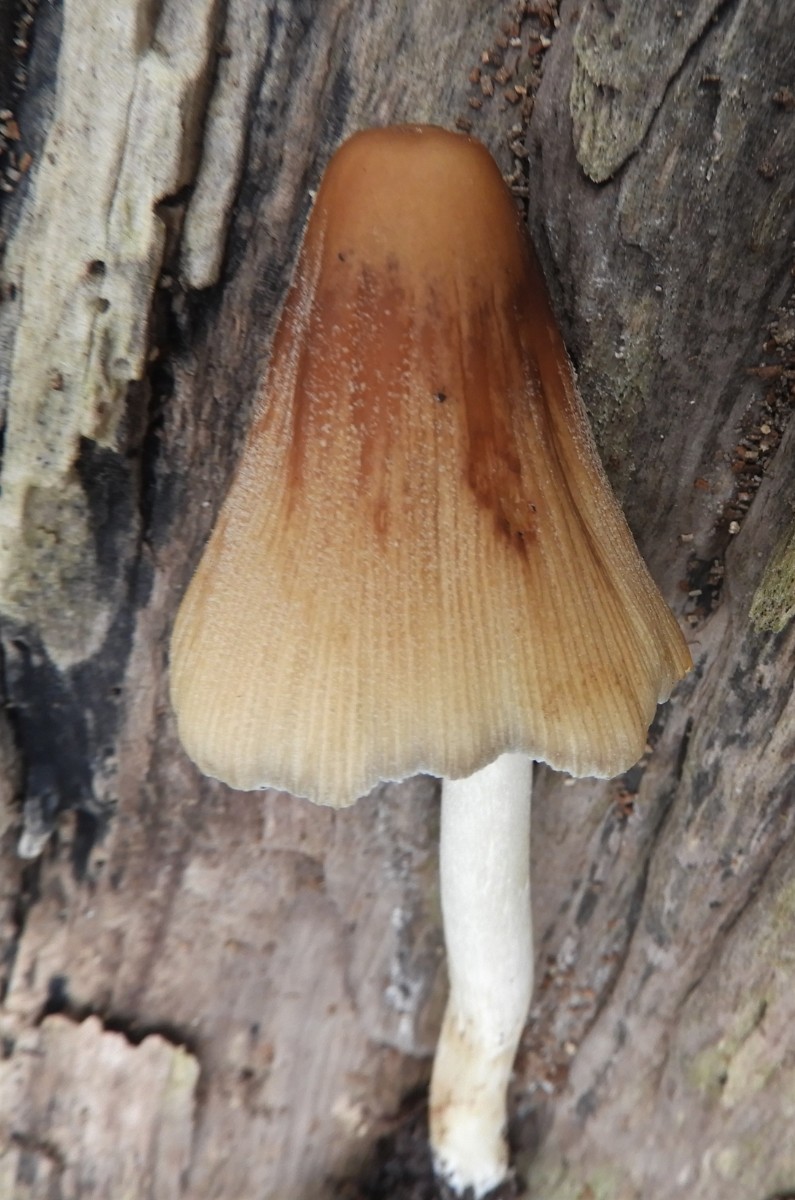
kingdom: Fungi
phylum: Basidiomycota
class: Agaricomycetes
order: Agaricales
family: Psathyrellaceae
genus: Coprinellus
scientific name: Coprinellus
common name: blækhat
